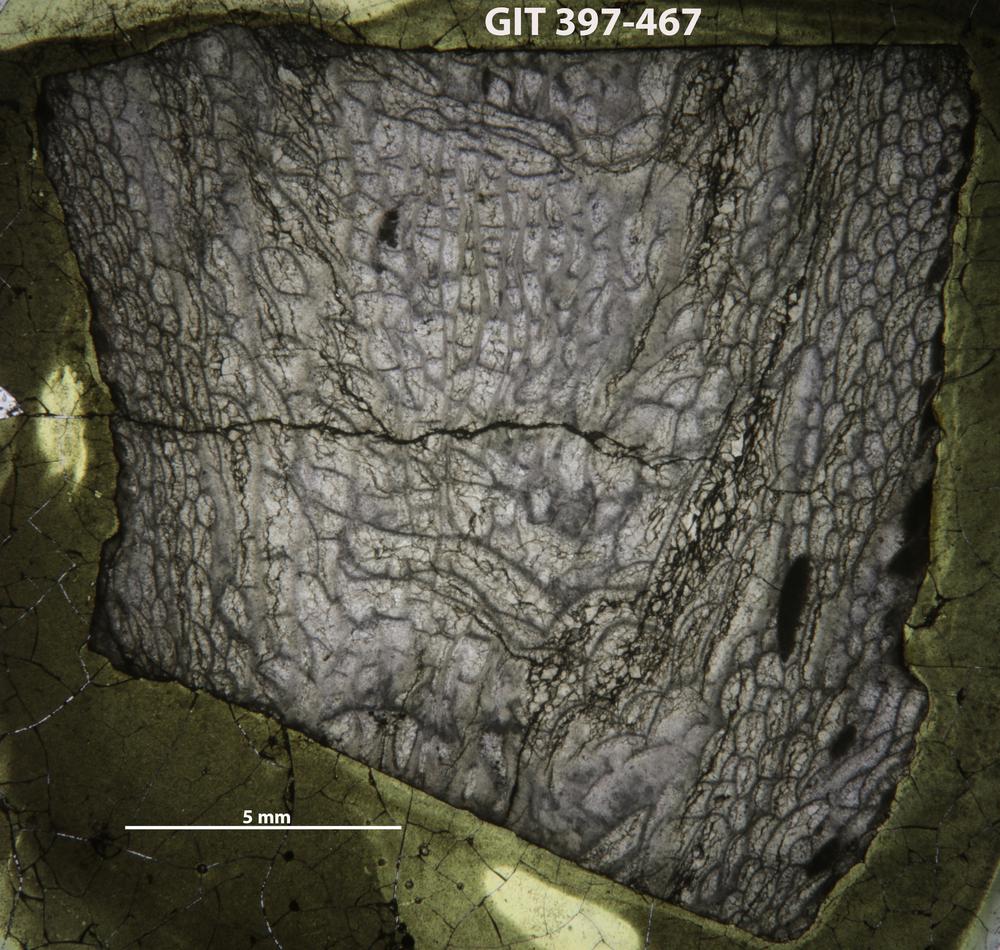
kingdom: Animalia
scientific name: Animalia
